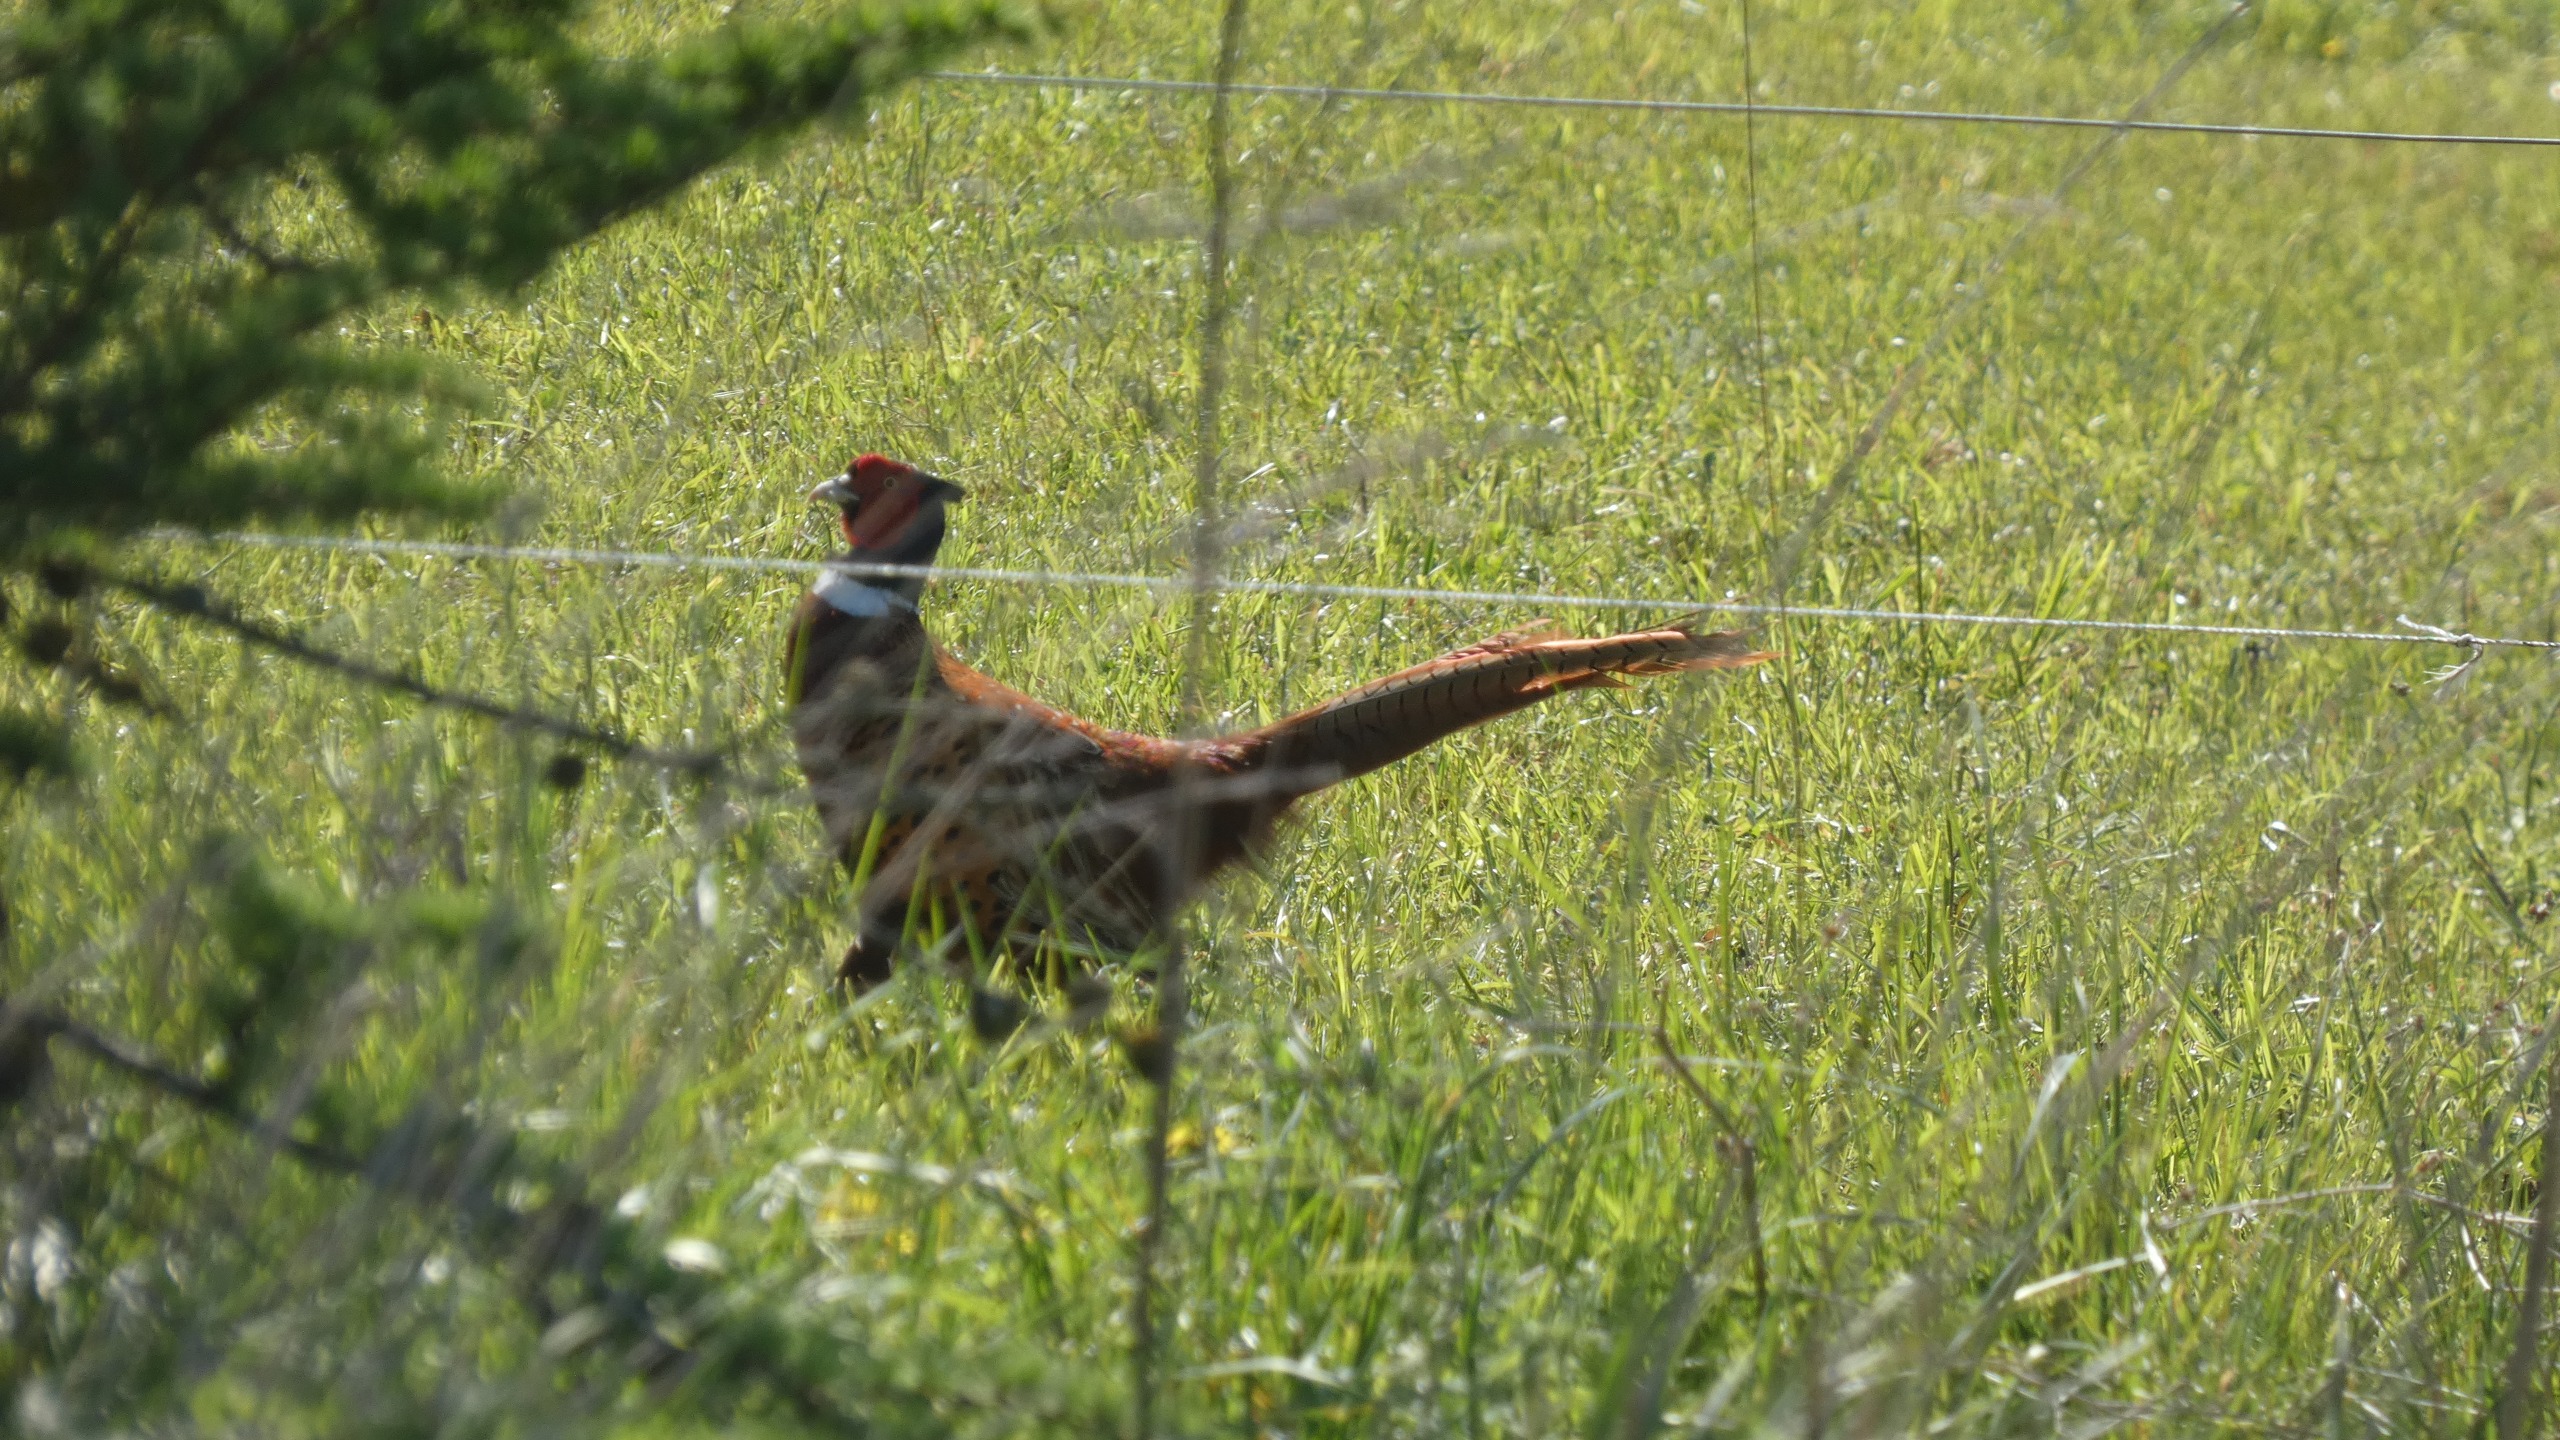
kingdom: Animalia
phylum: Chordata
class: Aves
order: Galliformes
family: Phasianidae
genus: Phasianus
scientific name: Phasianus colchicus
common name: Fasan
